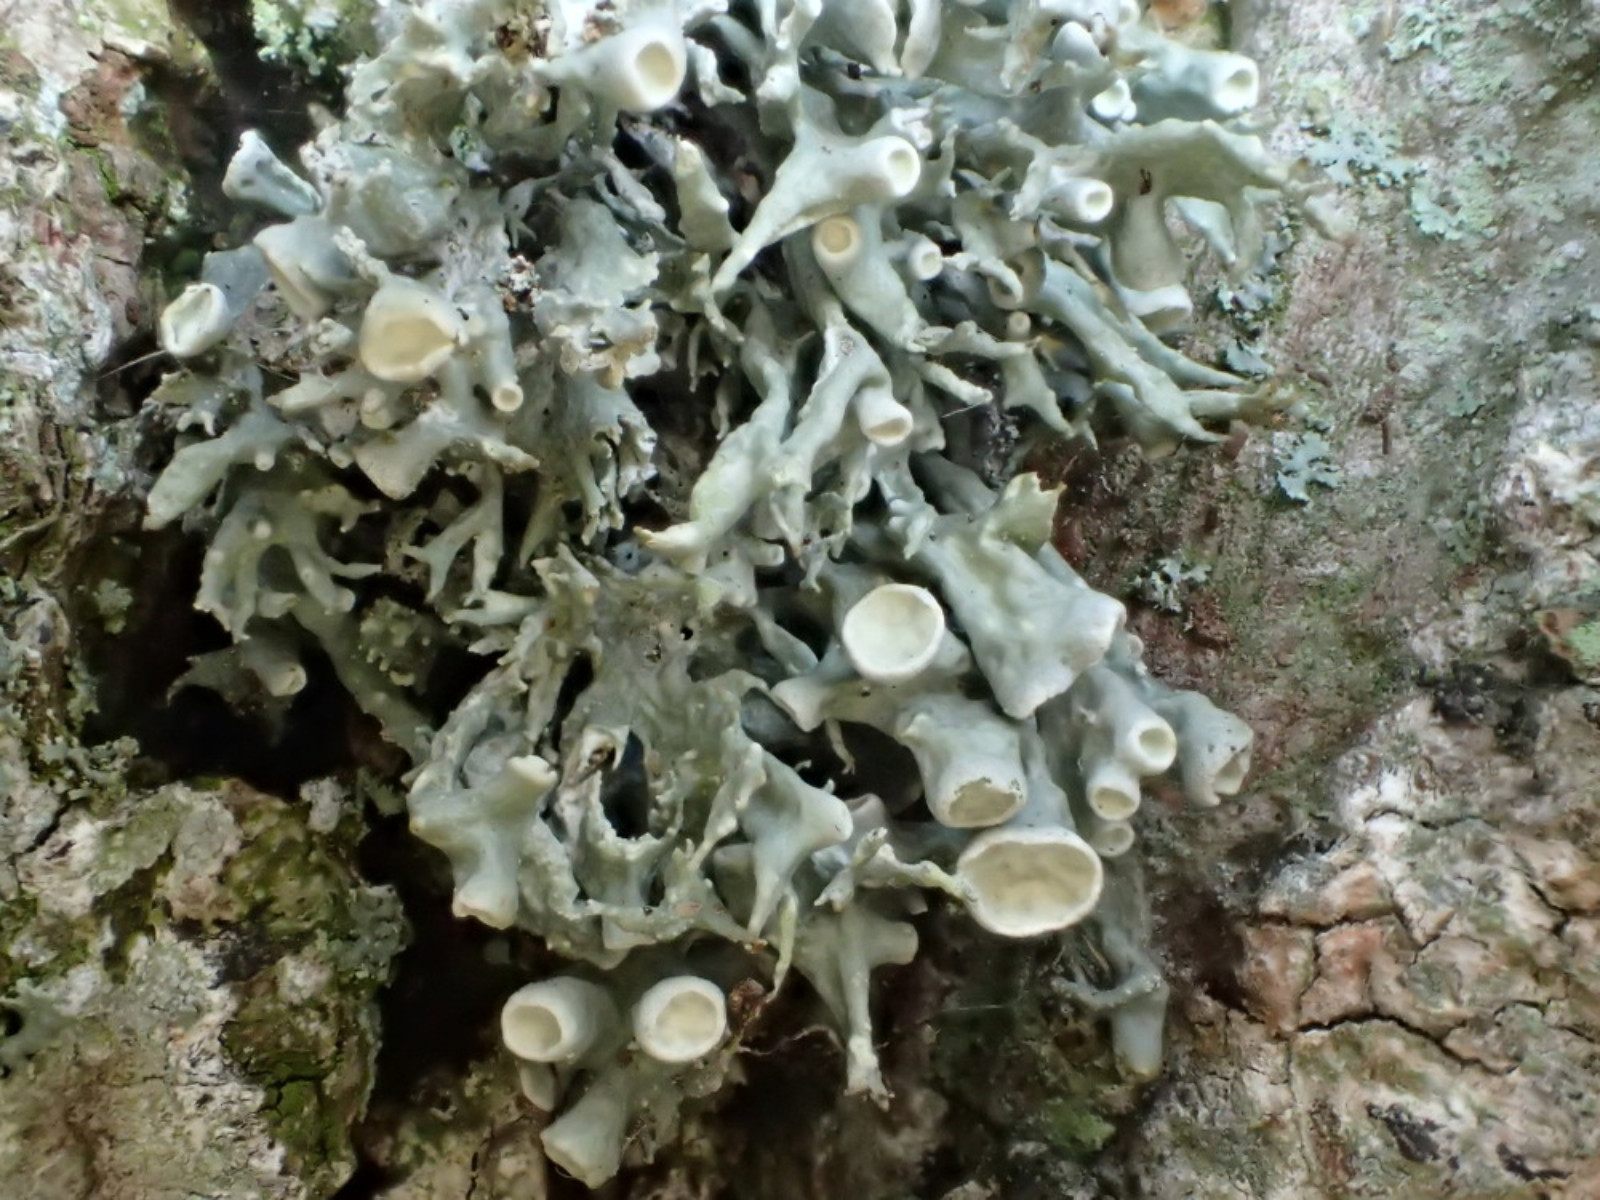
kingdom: Fungi
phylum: Ascomycota
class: Lecanoromycetes
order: Lecanorales
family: Ramalinaceae
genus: Ramalina
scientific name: Ramalina fastigiata
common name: tue-grenlav
